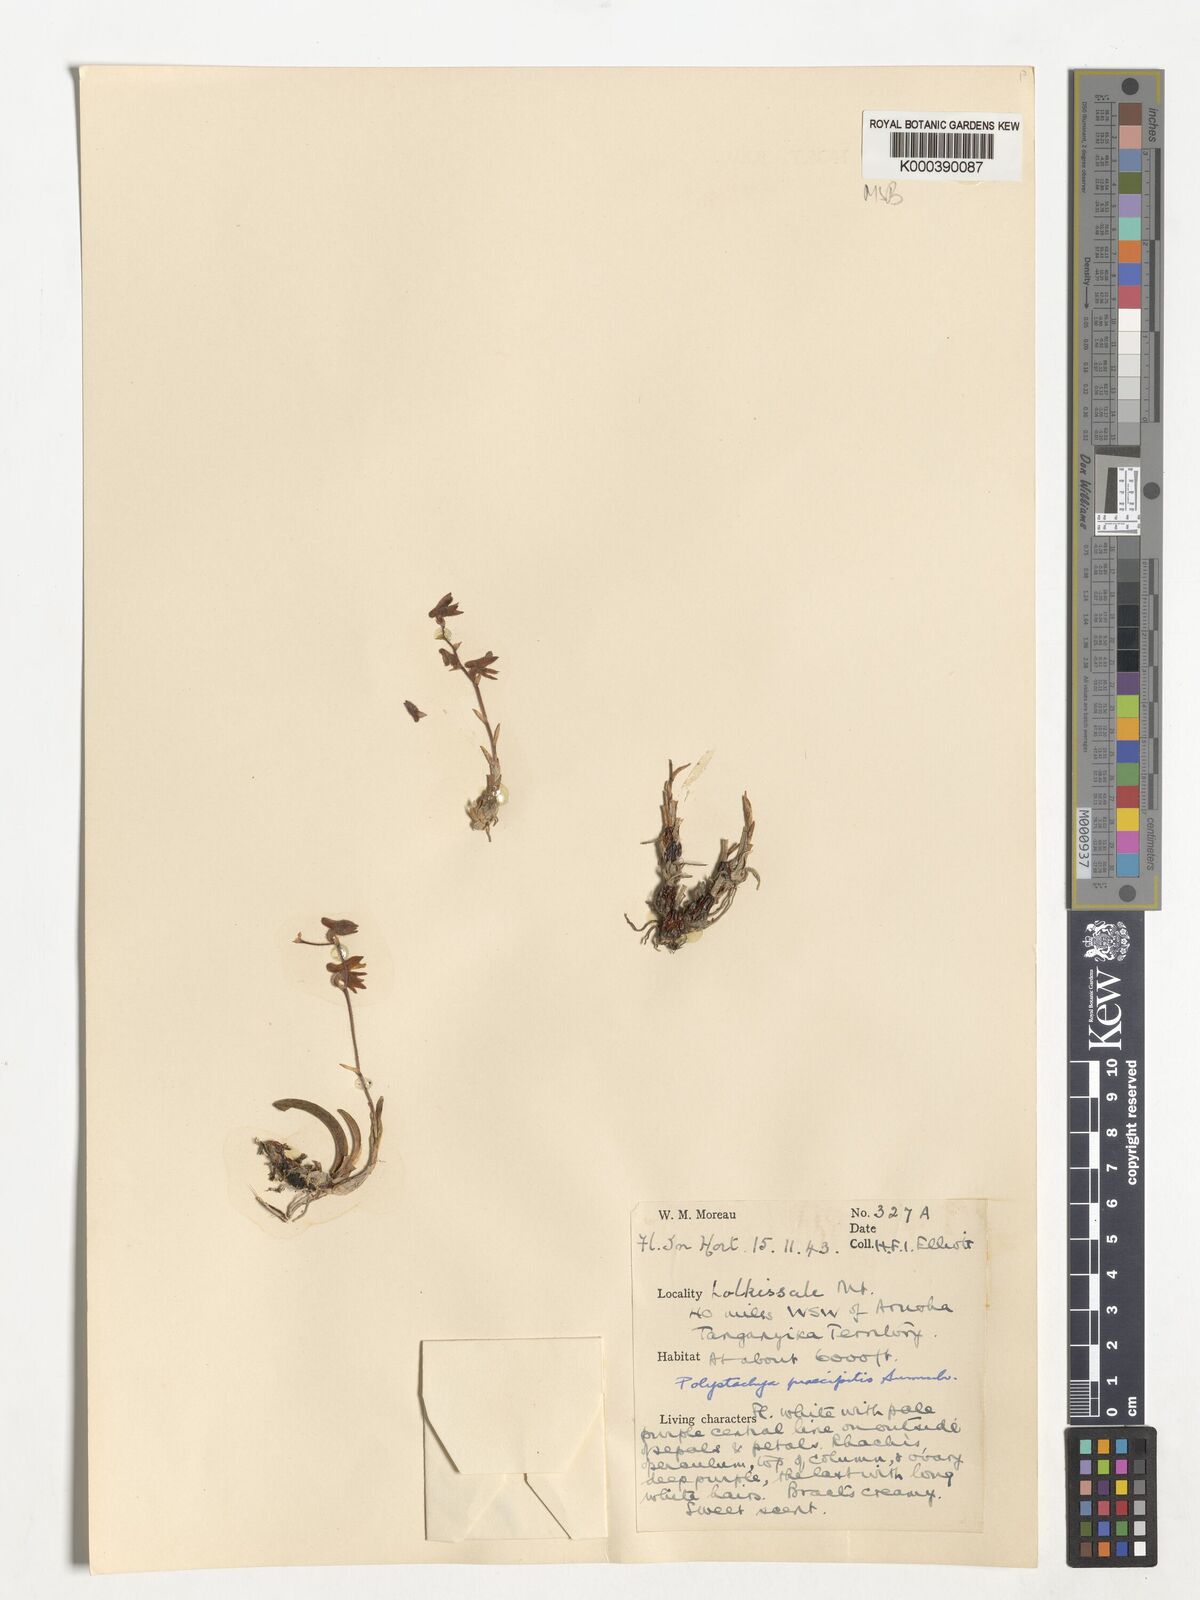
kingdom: Plantae
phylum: Tracheophyta
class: Liliopsida
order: Asparagales
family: Orchidaceae
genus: Polystachya
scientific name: Polystachya praecipitis
